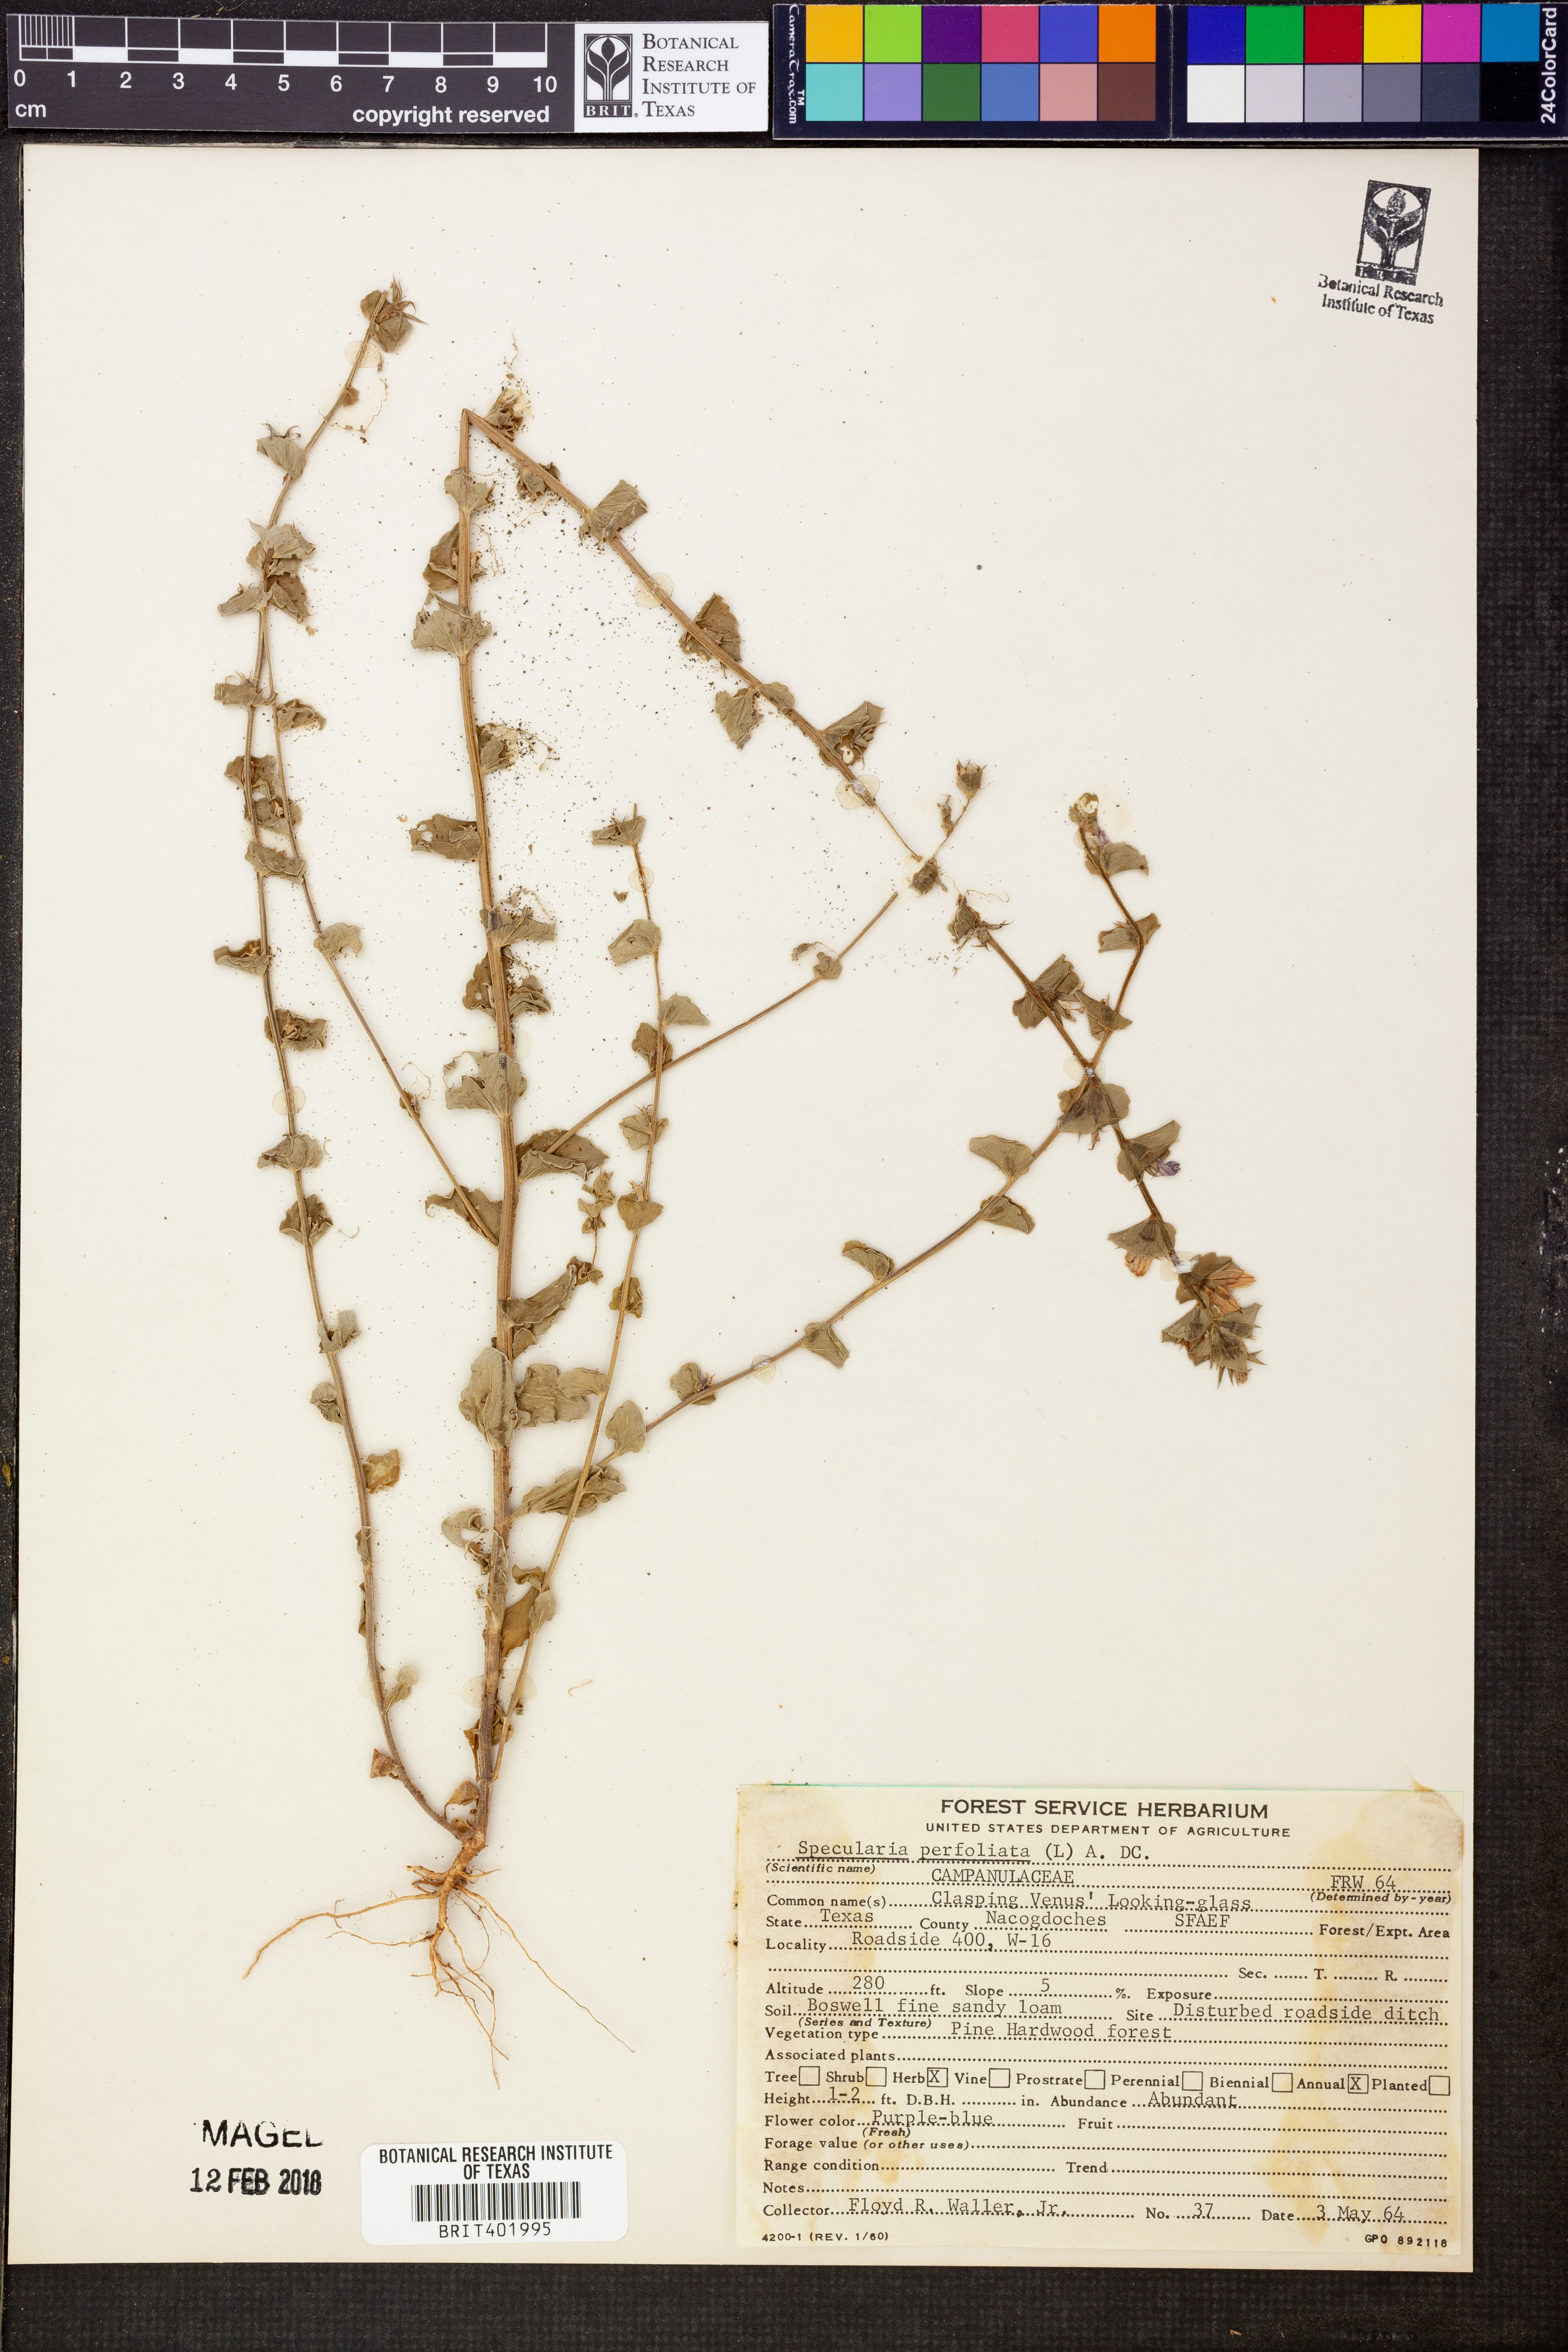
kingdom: Plantae
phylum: Tracheophyta
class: Magnoliopsida
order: Asterales
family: Campanulaceae
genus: Triodanis
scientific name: Triodanis perfoliata
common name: Clasping venus' looking-glass
